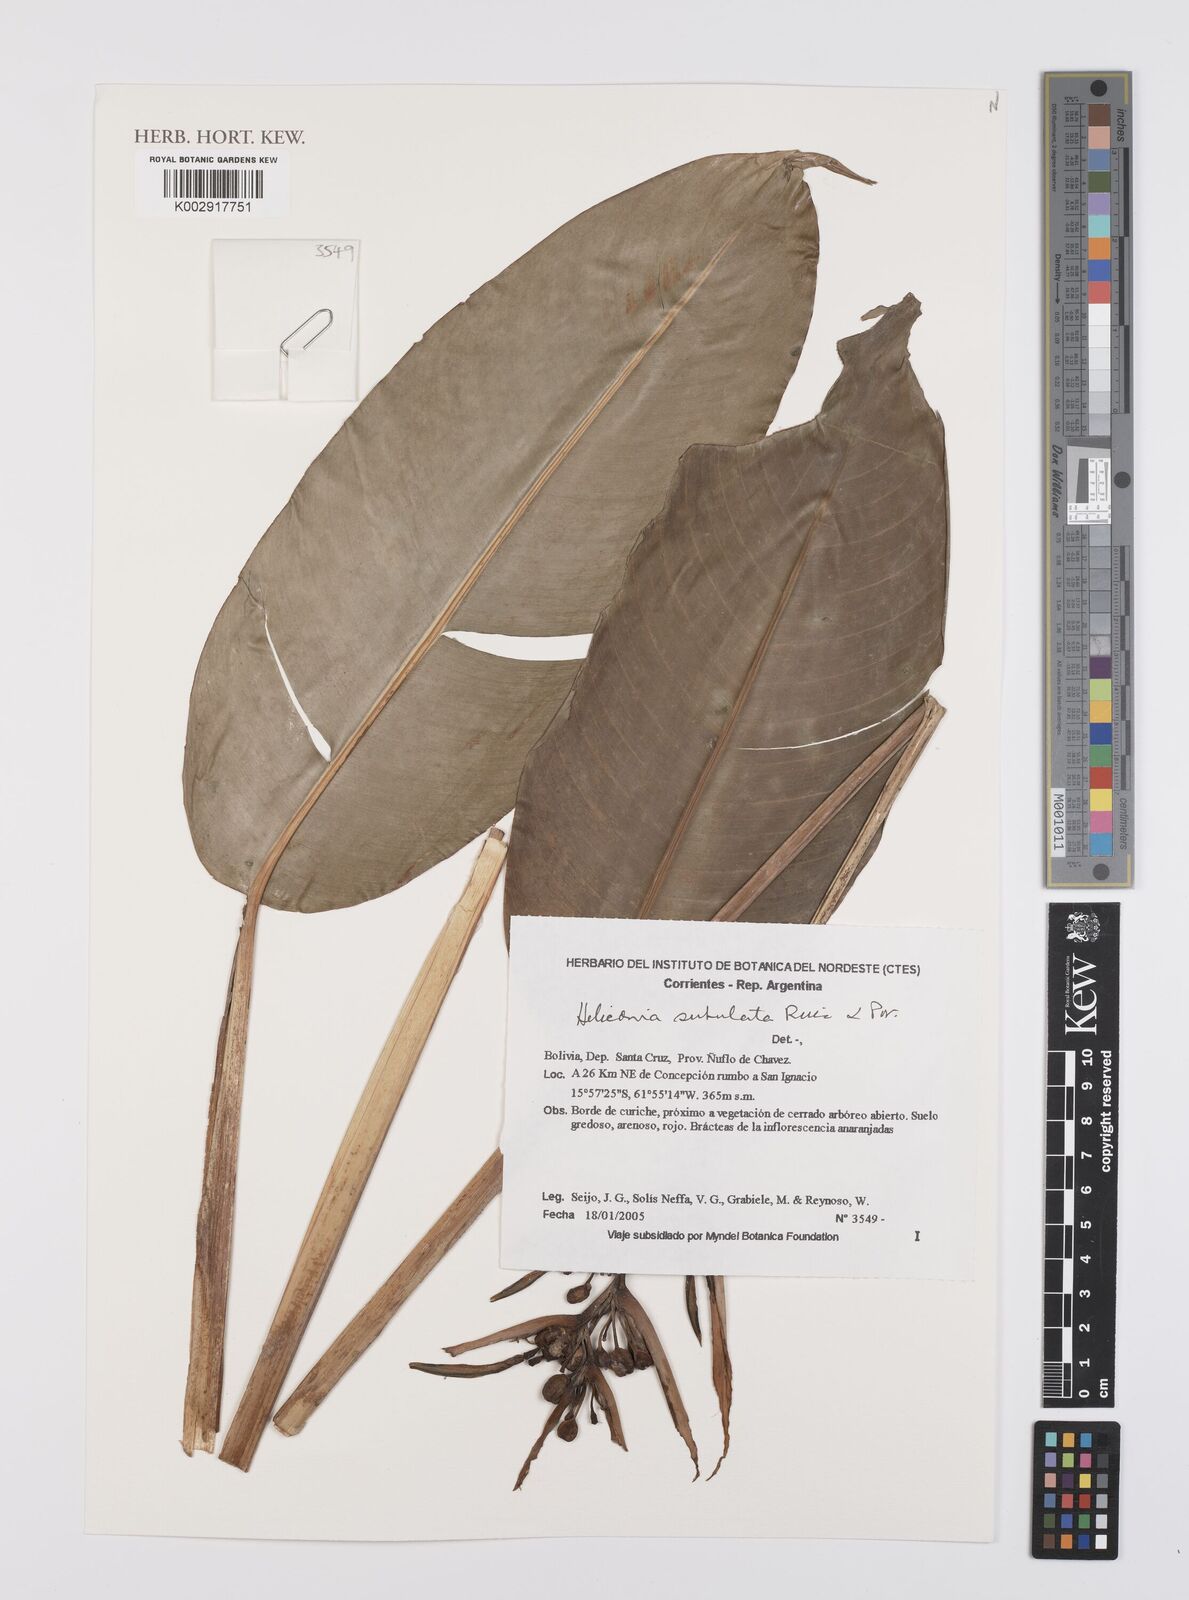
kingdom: Plantae
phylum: Tracheophyta
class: Liliopsida
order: Zingiberales
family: Heliconiaceae
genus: Heliconia
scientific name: Heliconia subulata
